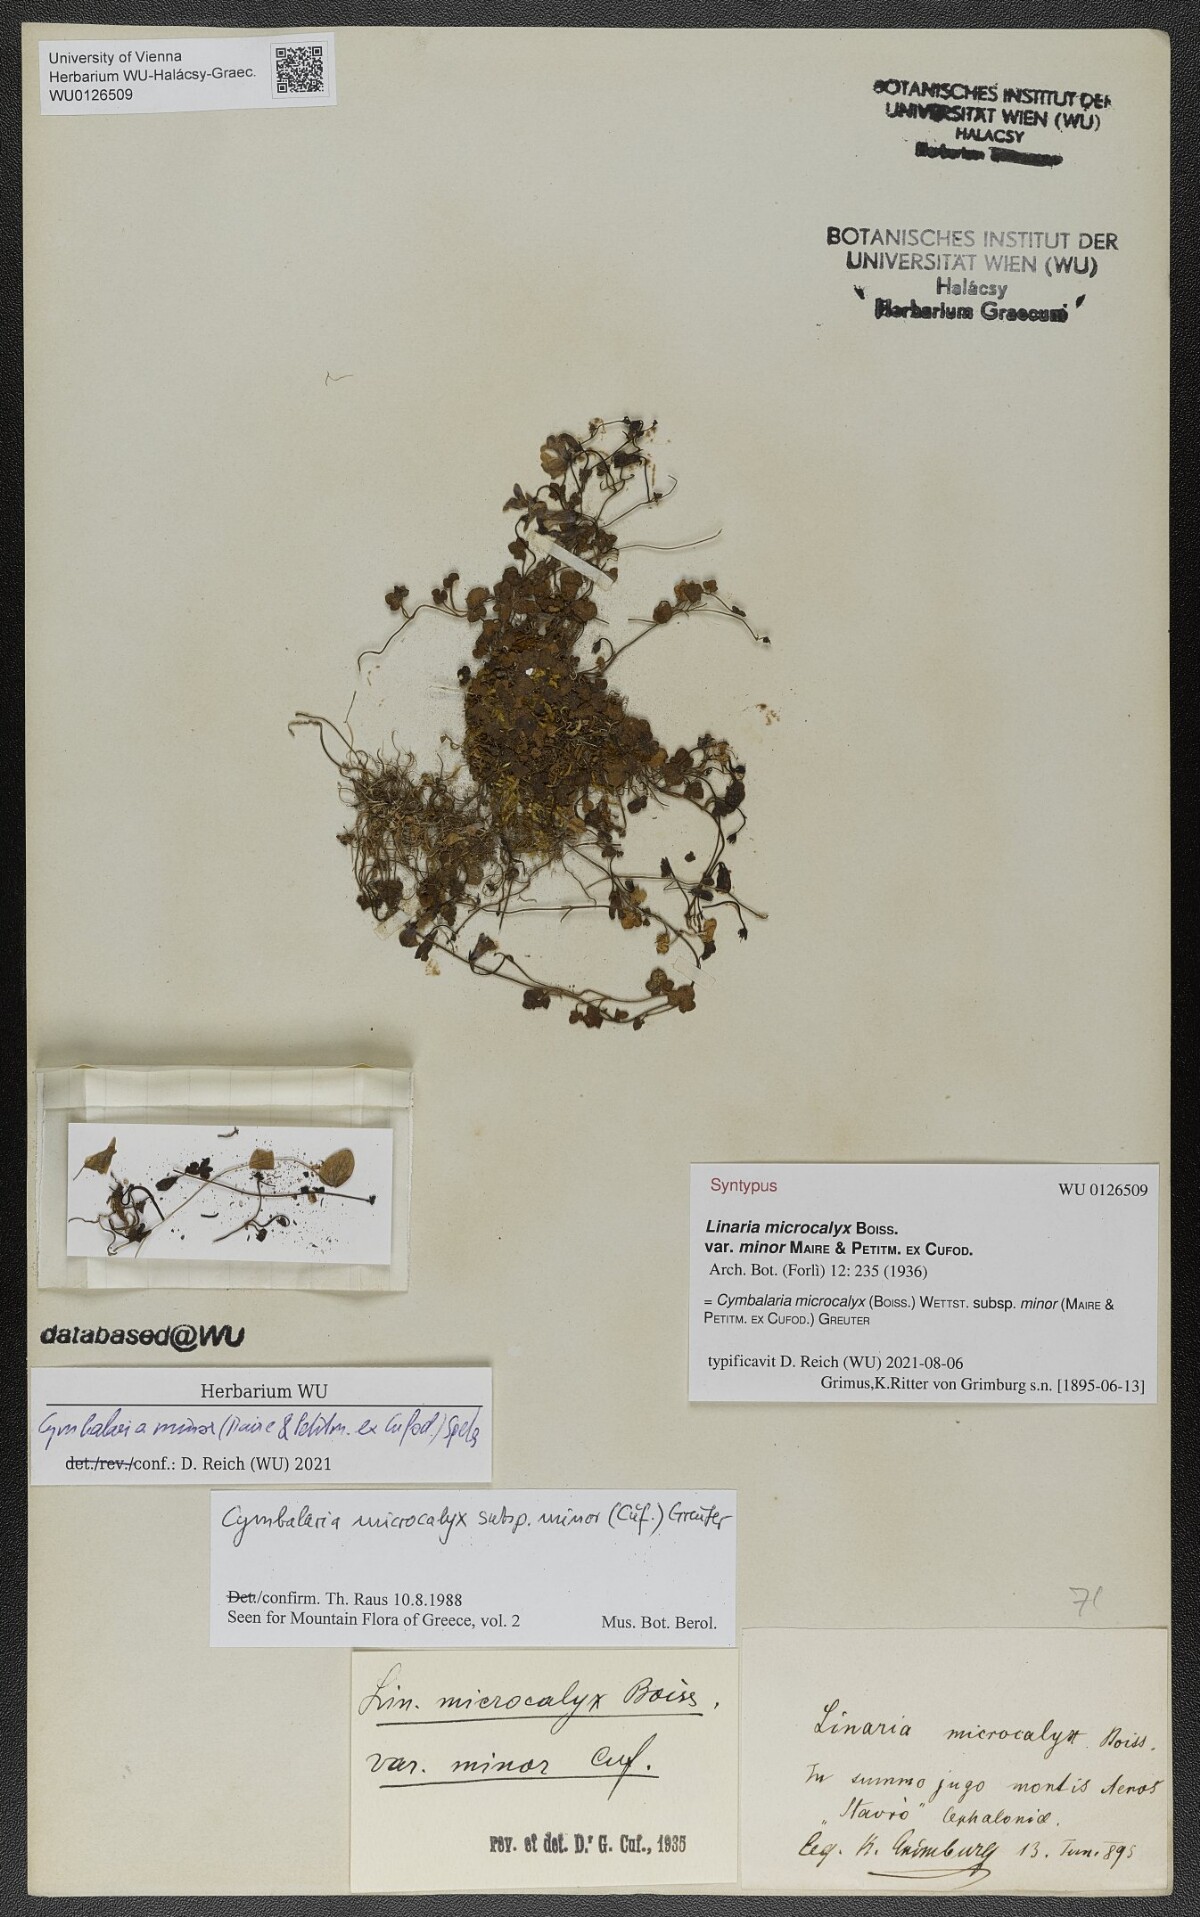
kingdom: Plantae
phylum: Tracheophyta
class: Magnoliopsida
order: Lamiales
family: Plantaginaceae
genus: Cymbalaria
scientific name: Cymbalaria minor
